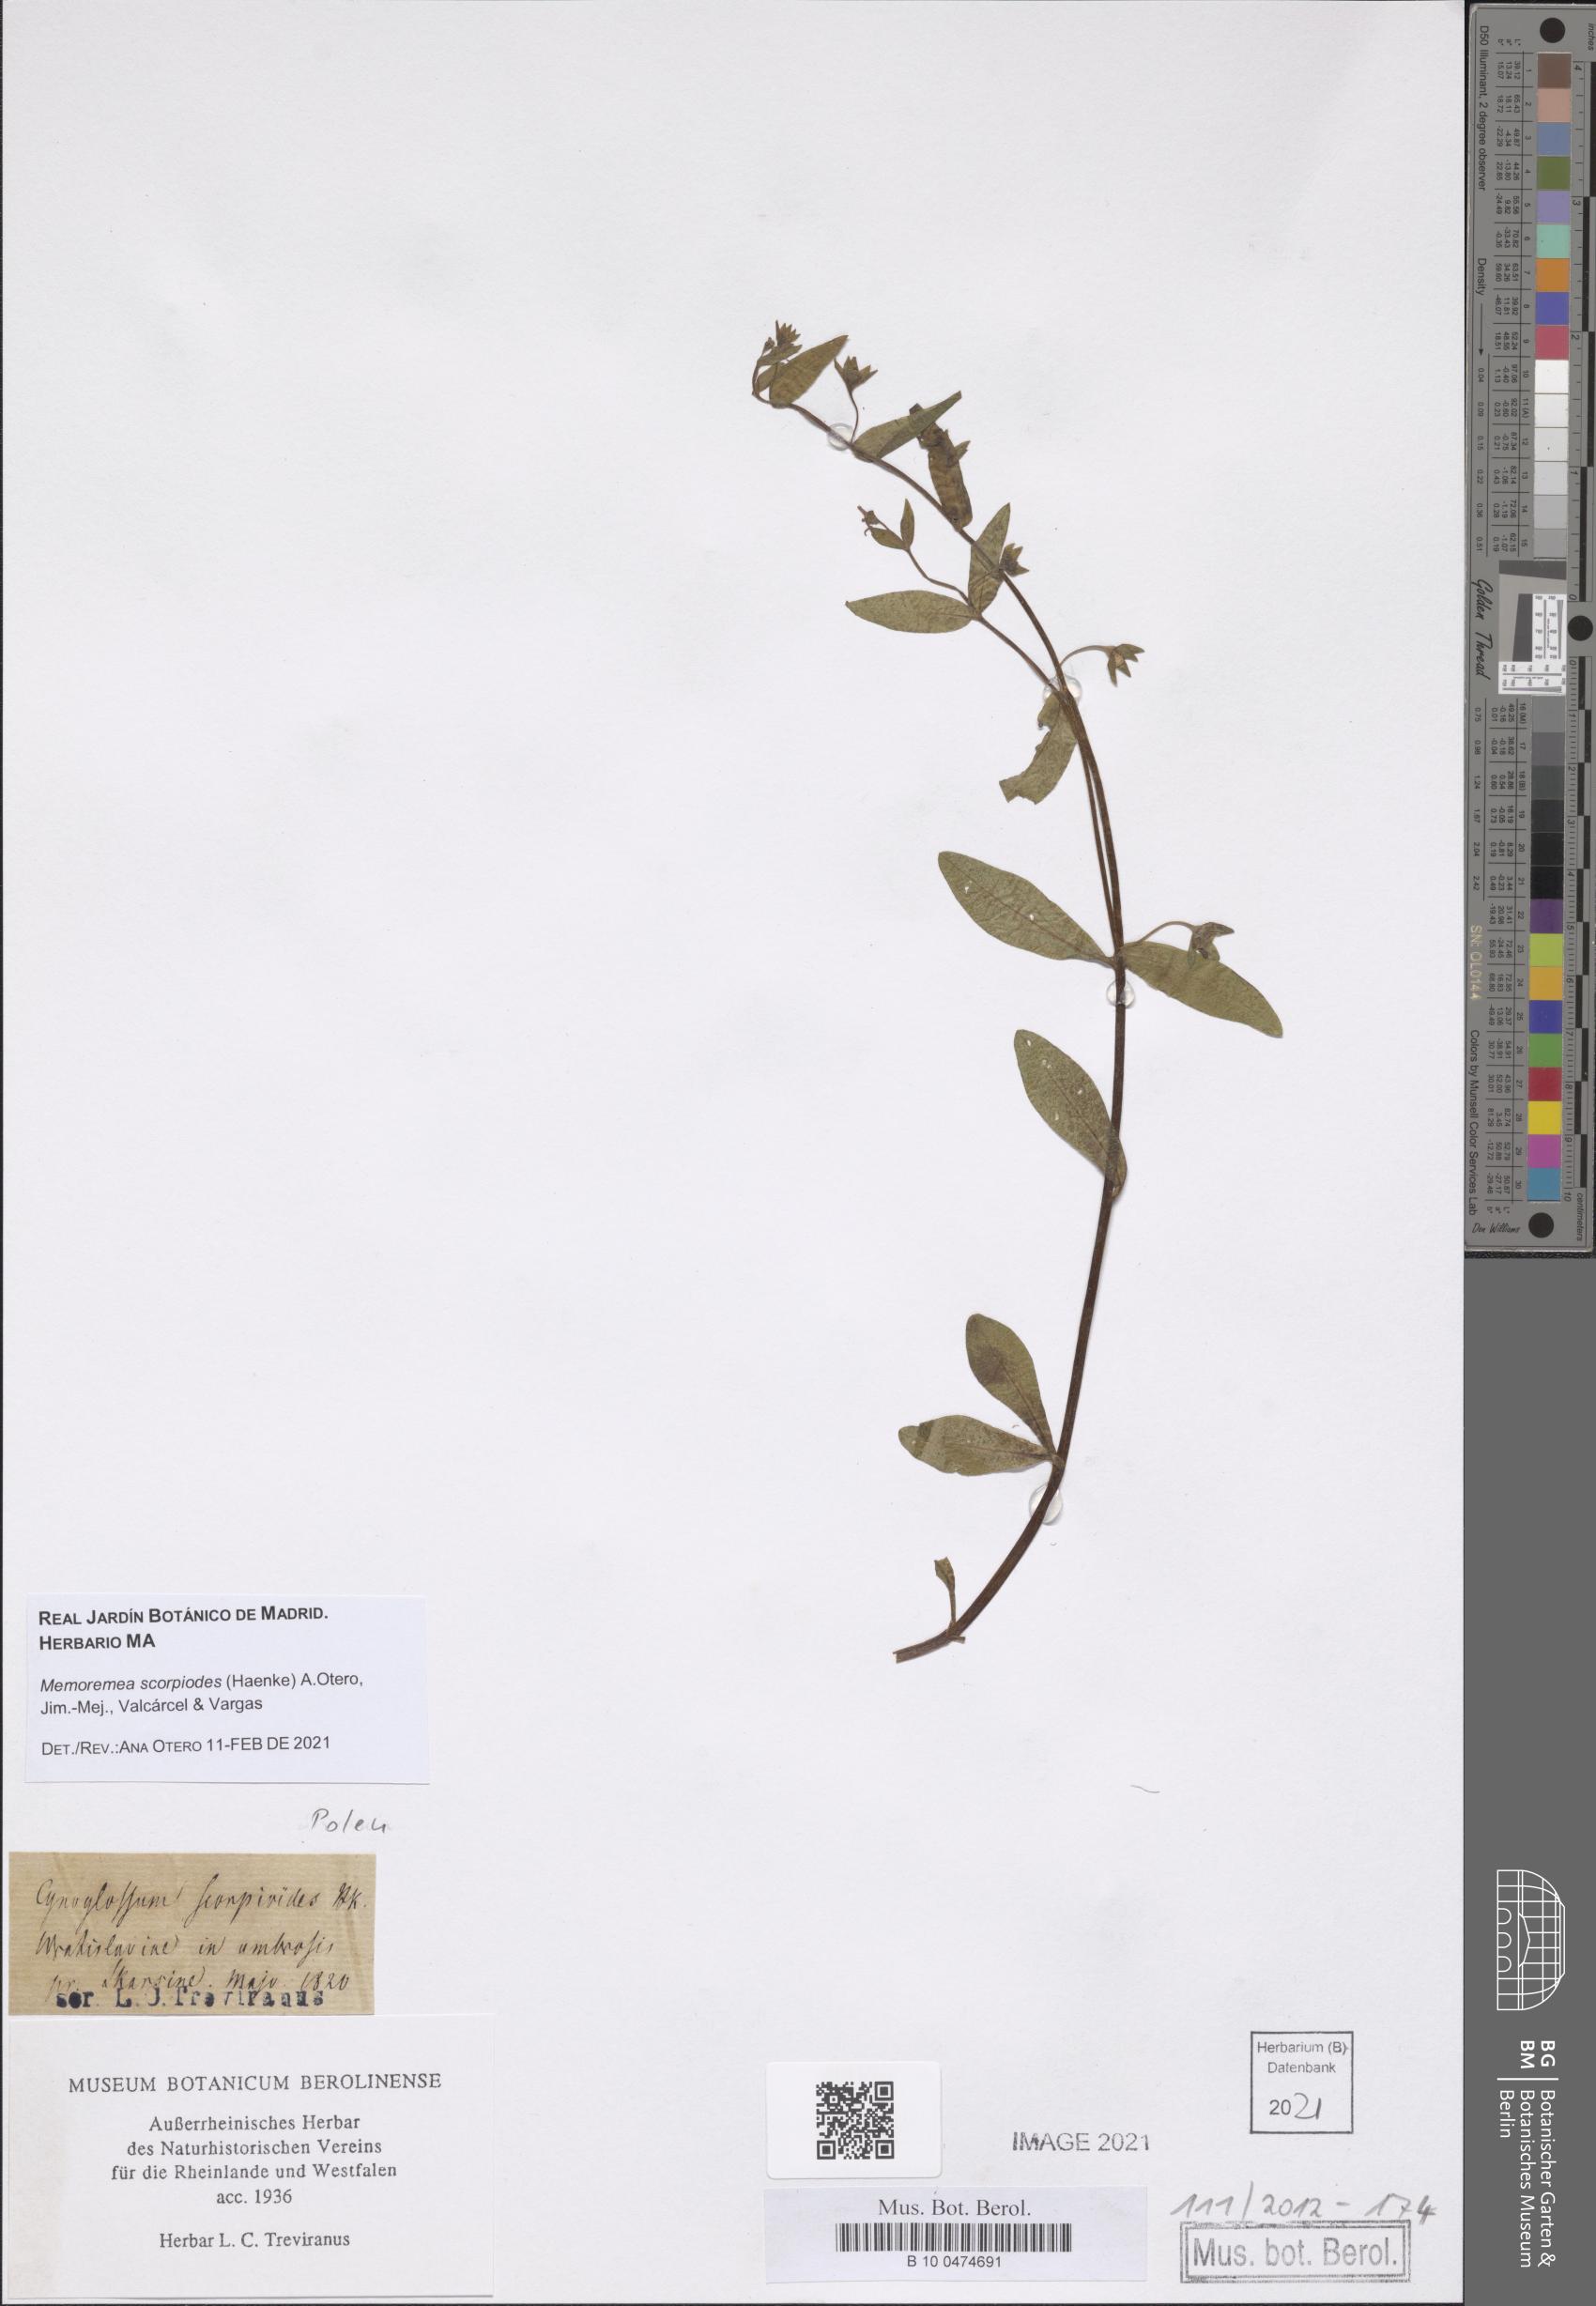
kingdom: Plantae
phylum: Tracheophyta
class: Magnoliopsida
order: Boraginales
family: Boraginaceae
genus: Memoremea
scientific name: Memoremea scorpioides
